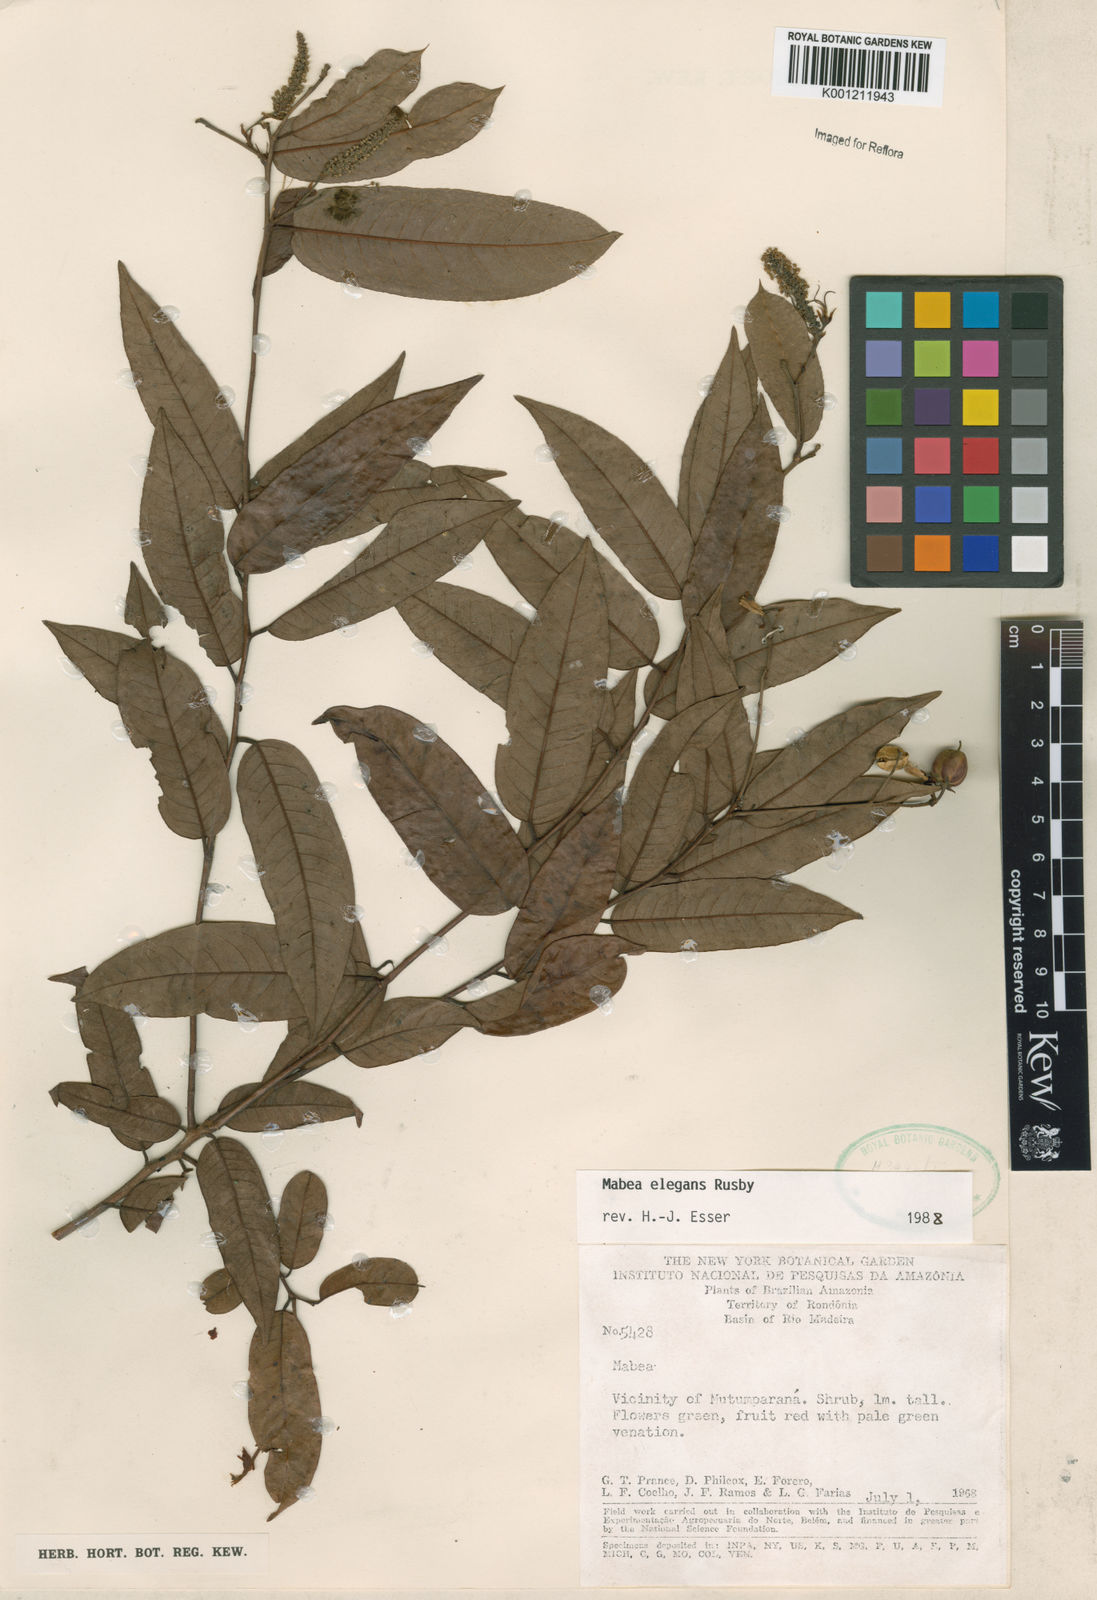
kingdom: Plantae
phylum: Tracheophyta
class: Magnoliopsida
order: Malpighiales
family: Euphorbiaceae
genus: Mabea
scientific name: Mabea elegans
